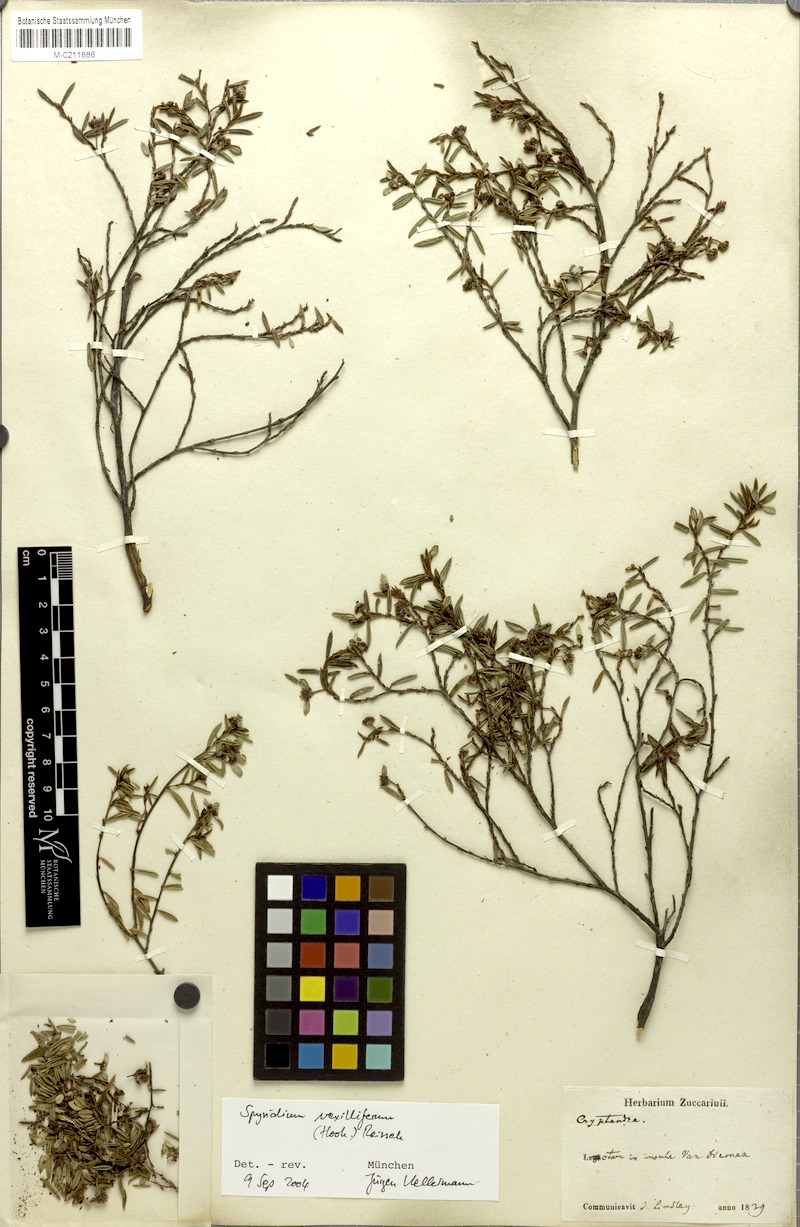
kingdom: Plantae
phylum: Tracheophyta
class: Magnoliopsida
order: Rosales
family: Rhamnaceae
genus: Spyridium
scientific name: Spyridium vexilliferum
